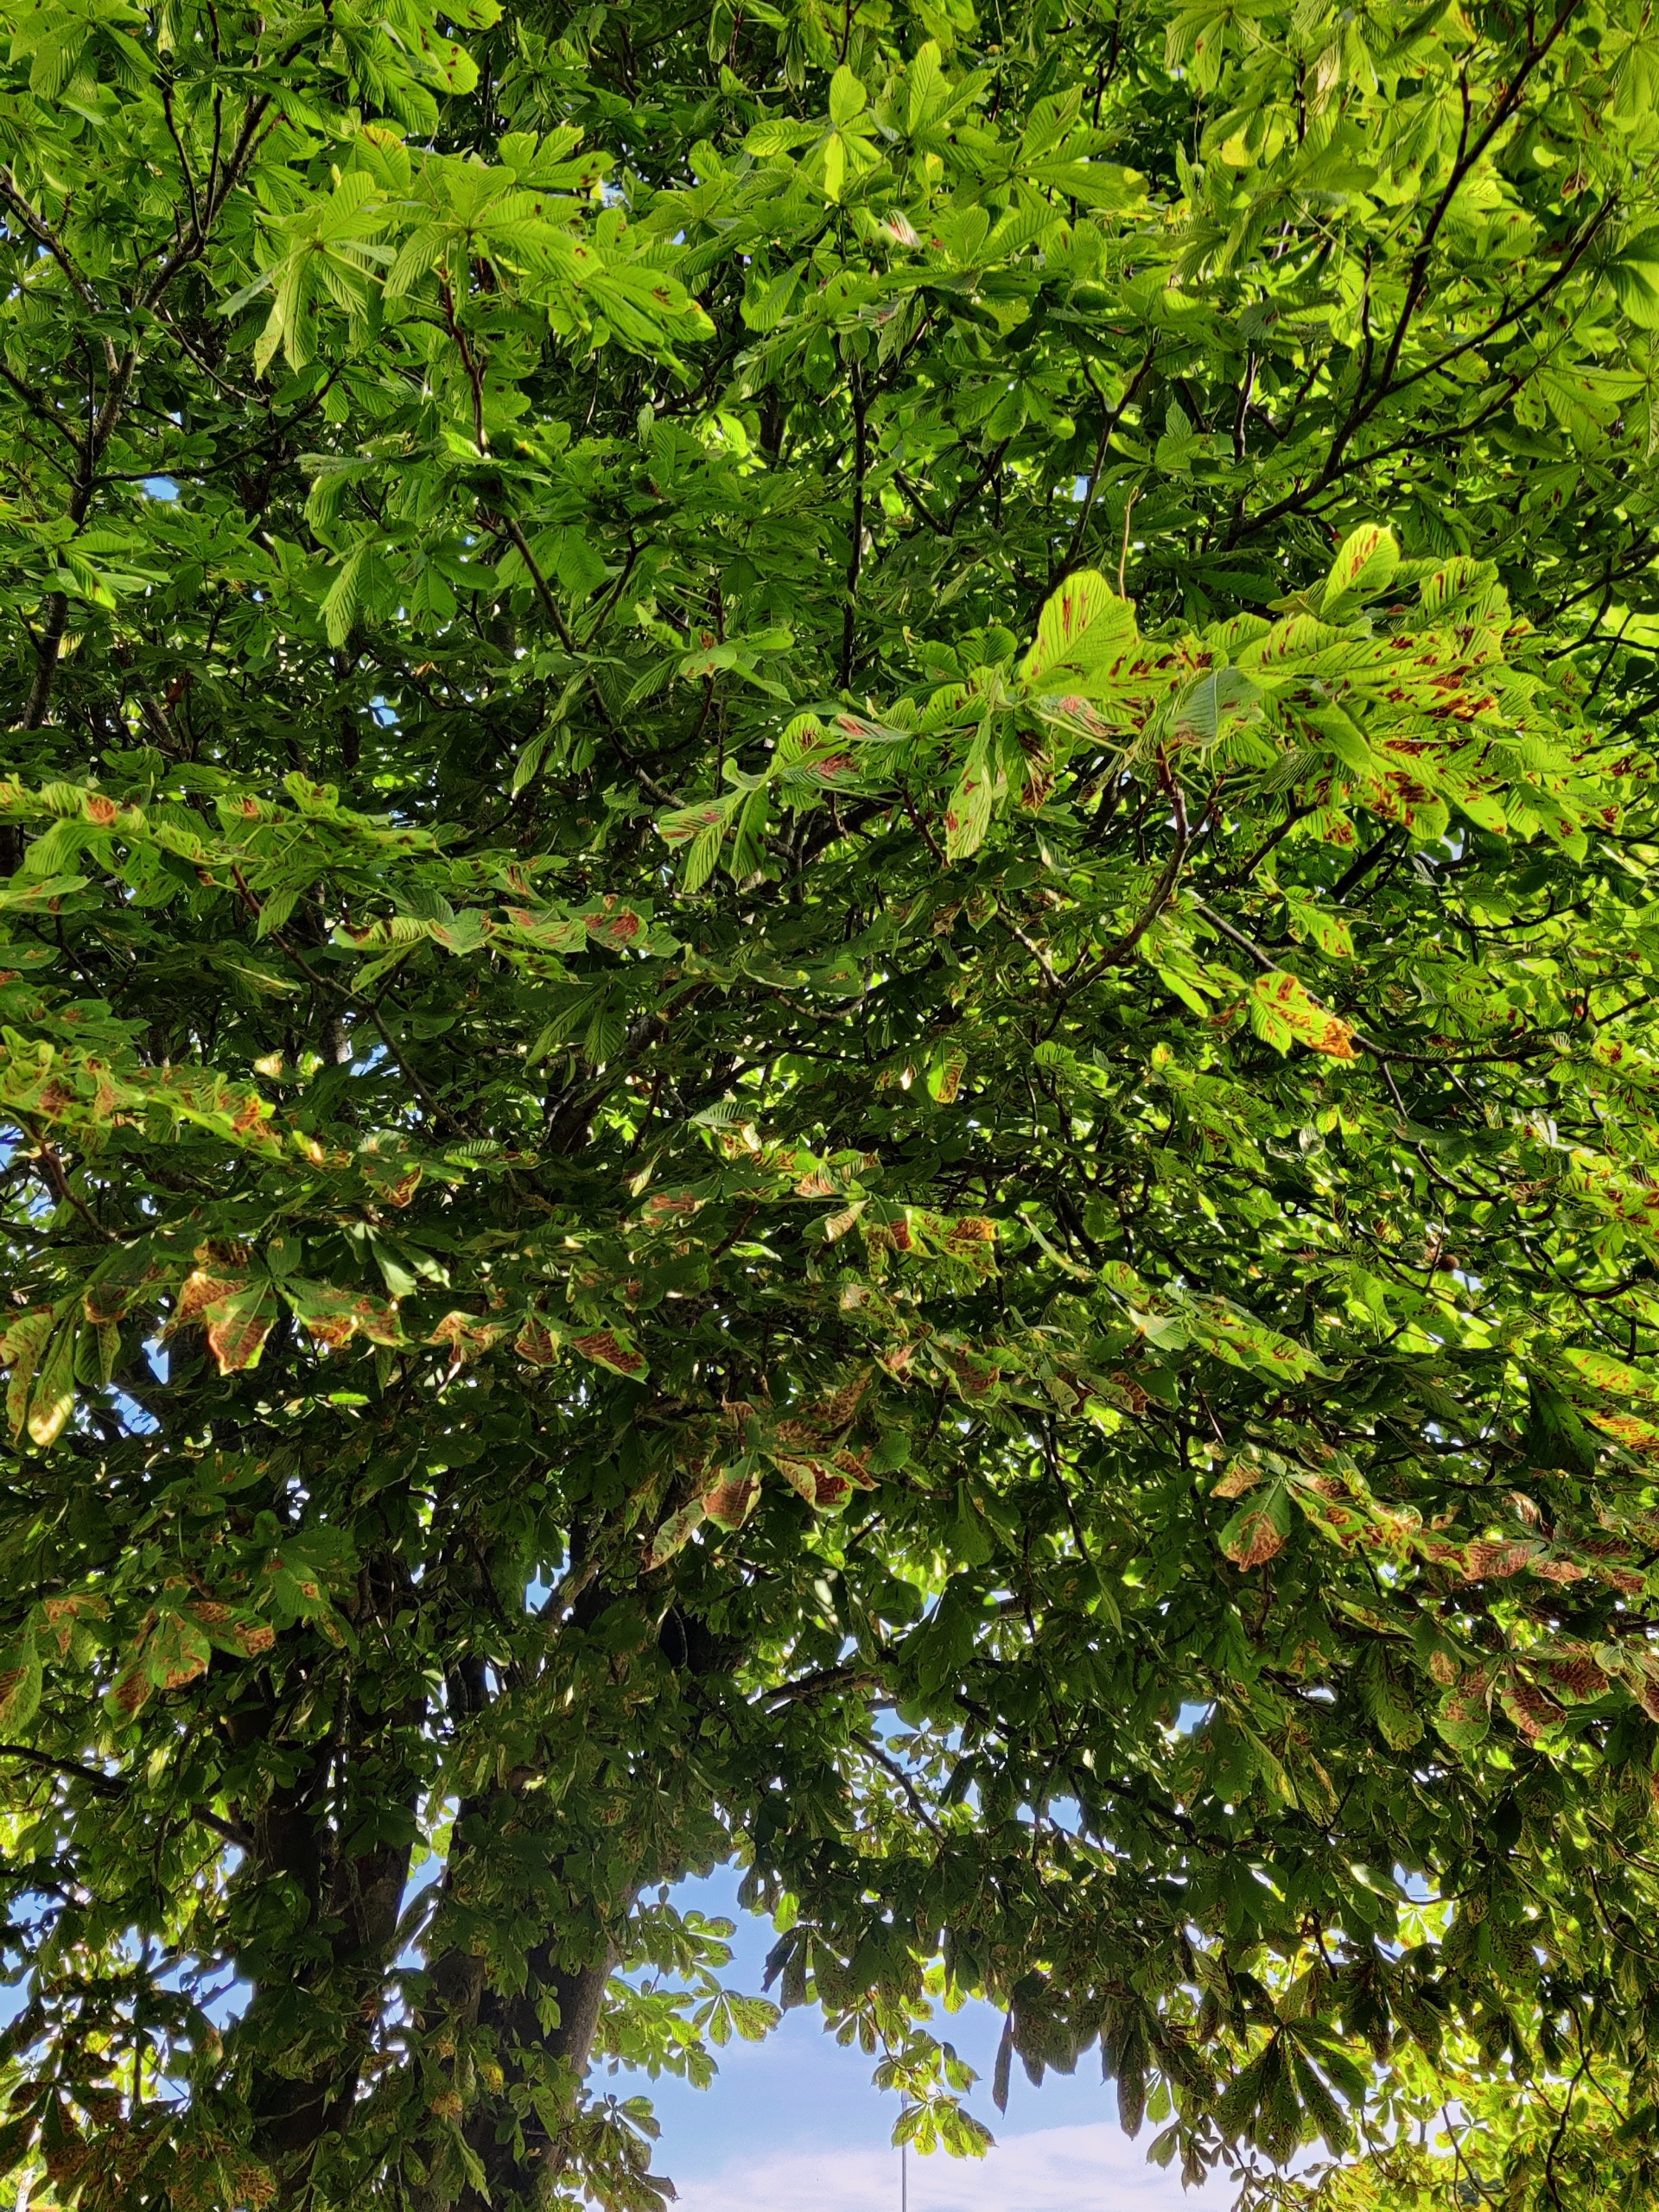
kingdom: Plantae
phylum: Tracheophyta
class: Magnoliopsida
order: Sapindales
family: Sapindaceae
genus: Aesculus
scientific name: Aesculus hippocastanum
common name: Hestekastanie
